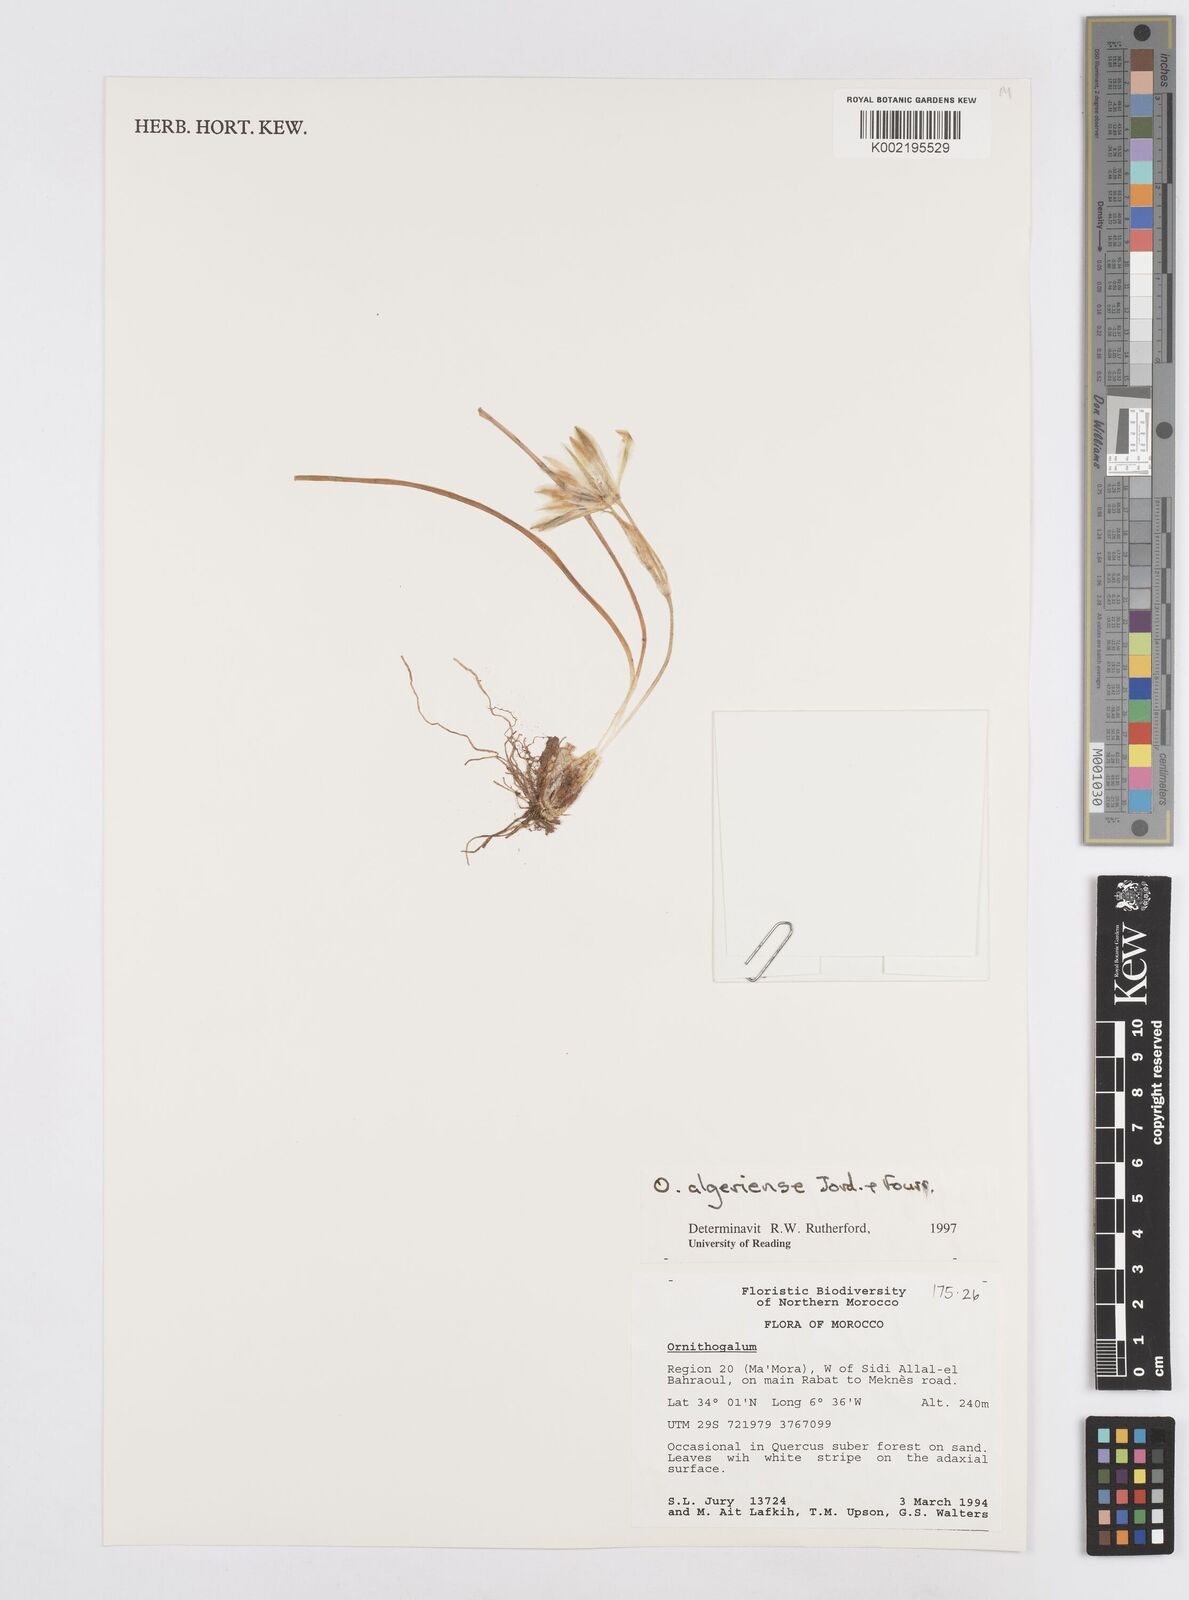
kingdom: Plantae
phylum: Tracheophyta
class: Liliopsida
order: Asparagales
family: Asparagaceae
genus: Ornithogalum
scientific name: Ornithogalum baeticum
